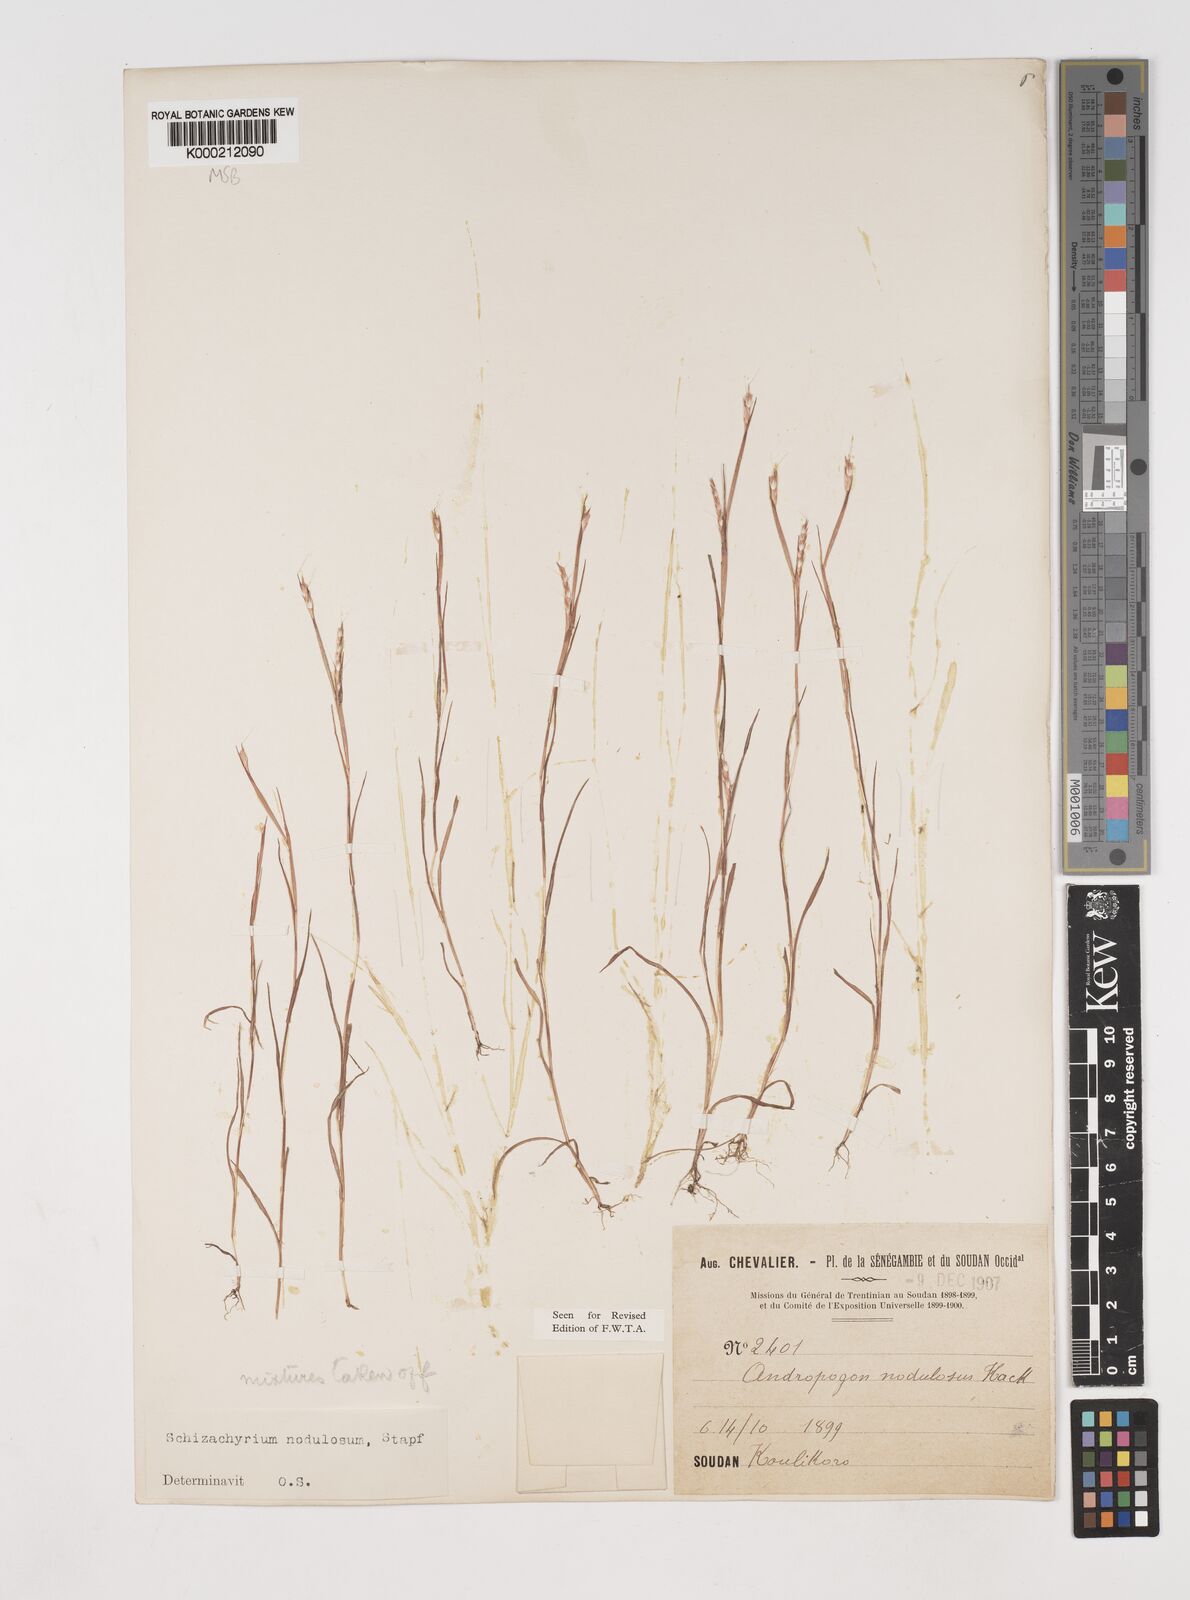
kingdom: Plantae
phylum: Tracheophyta
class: Liliopsida
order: Poales
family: Poaceae
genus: Schizachyrium
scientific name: Schizachyrium nodulosum
